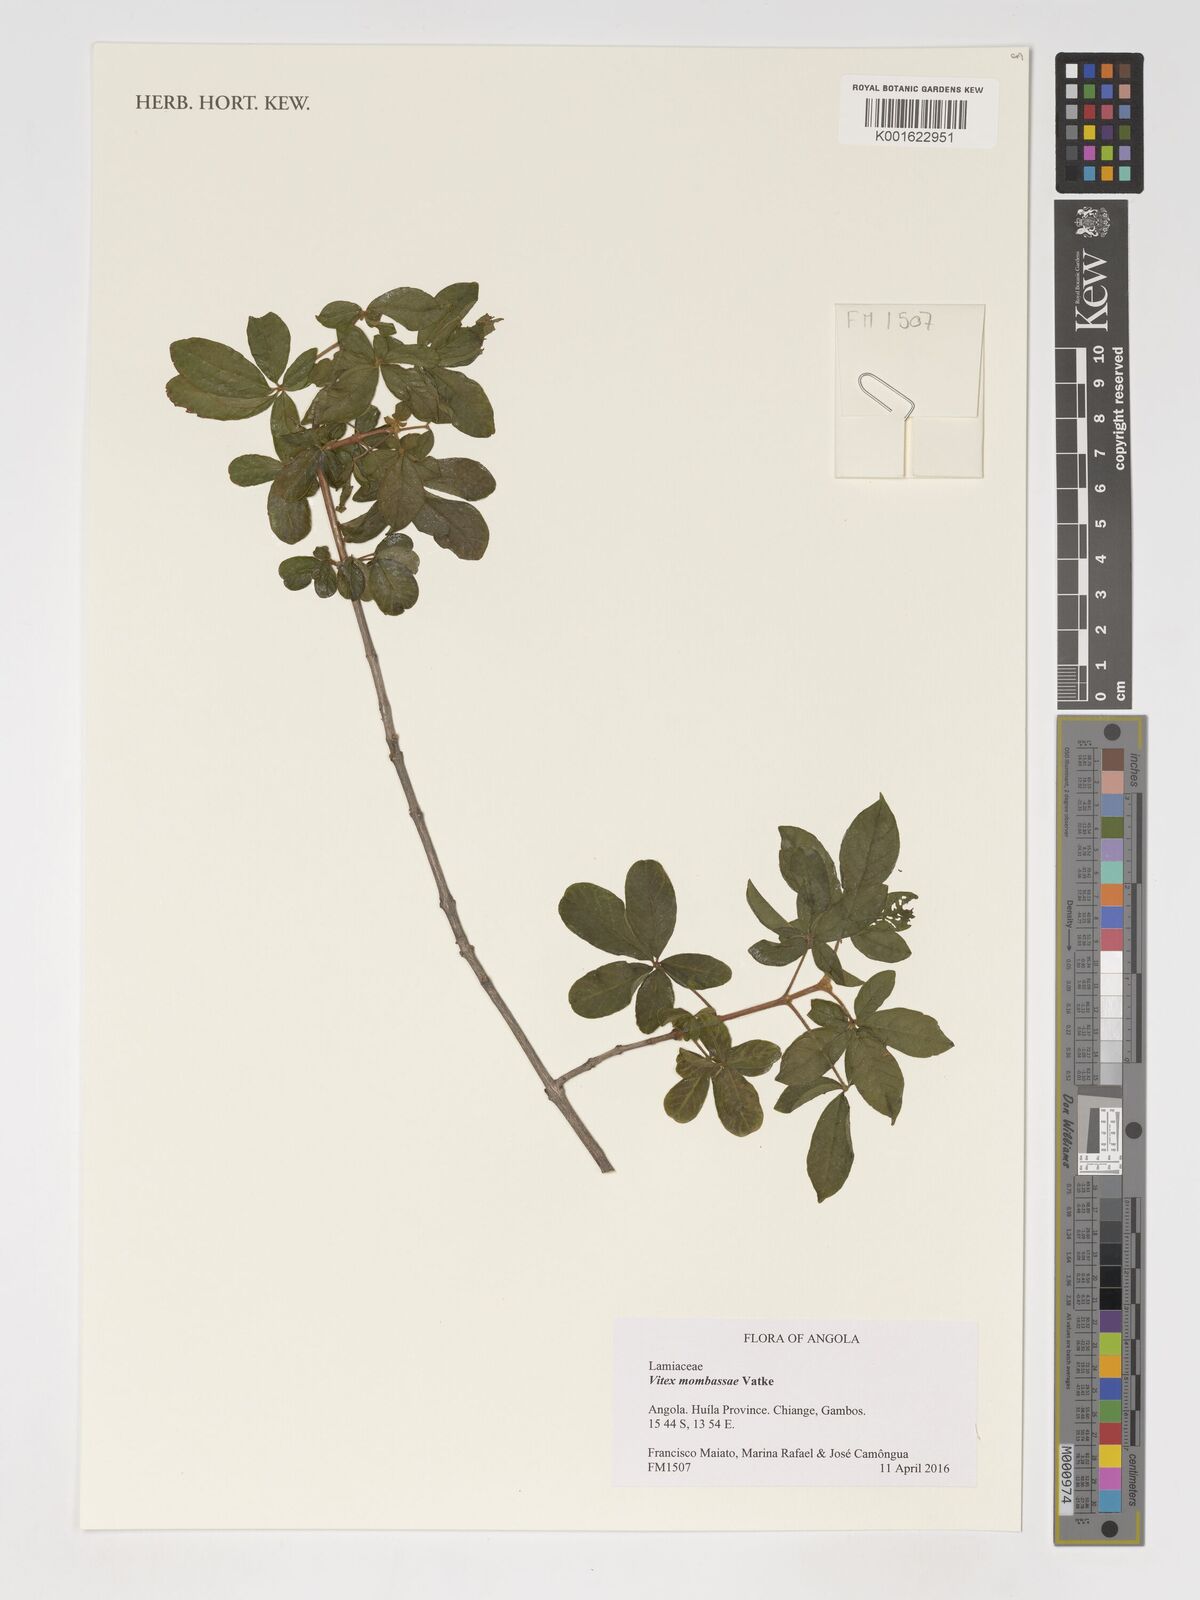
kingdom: Plantae
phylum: Tracheophyta
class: Magnoliopsida
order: Lamiales
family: Lamiaceae
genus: Vitex
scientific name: Vitex mombassae
